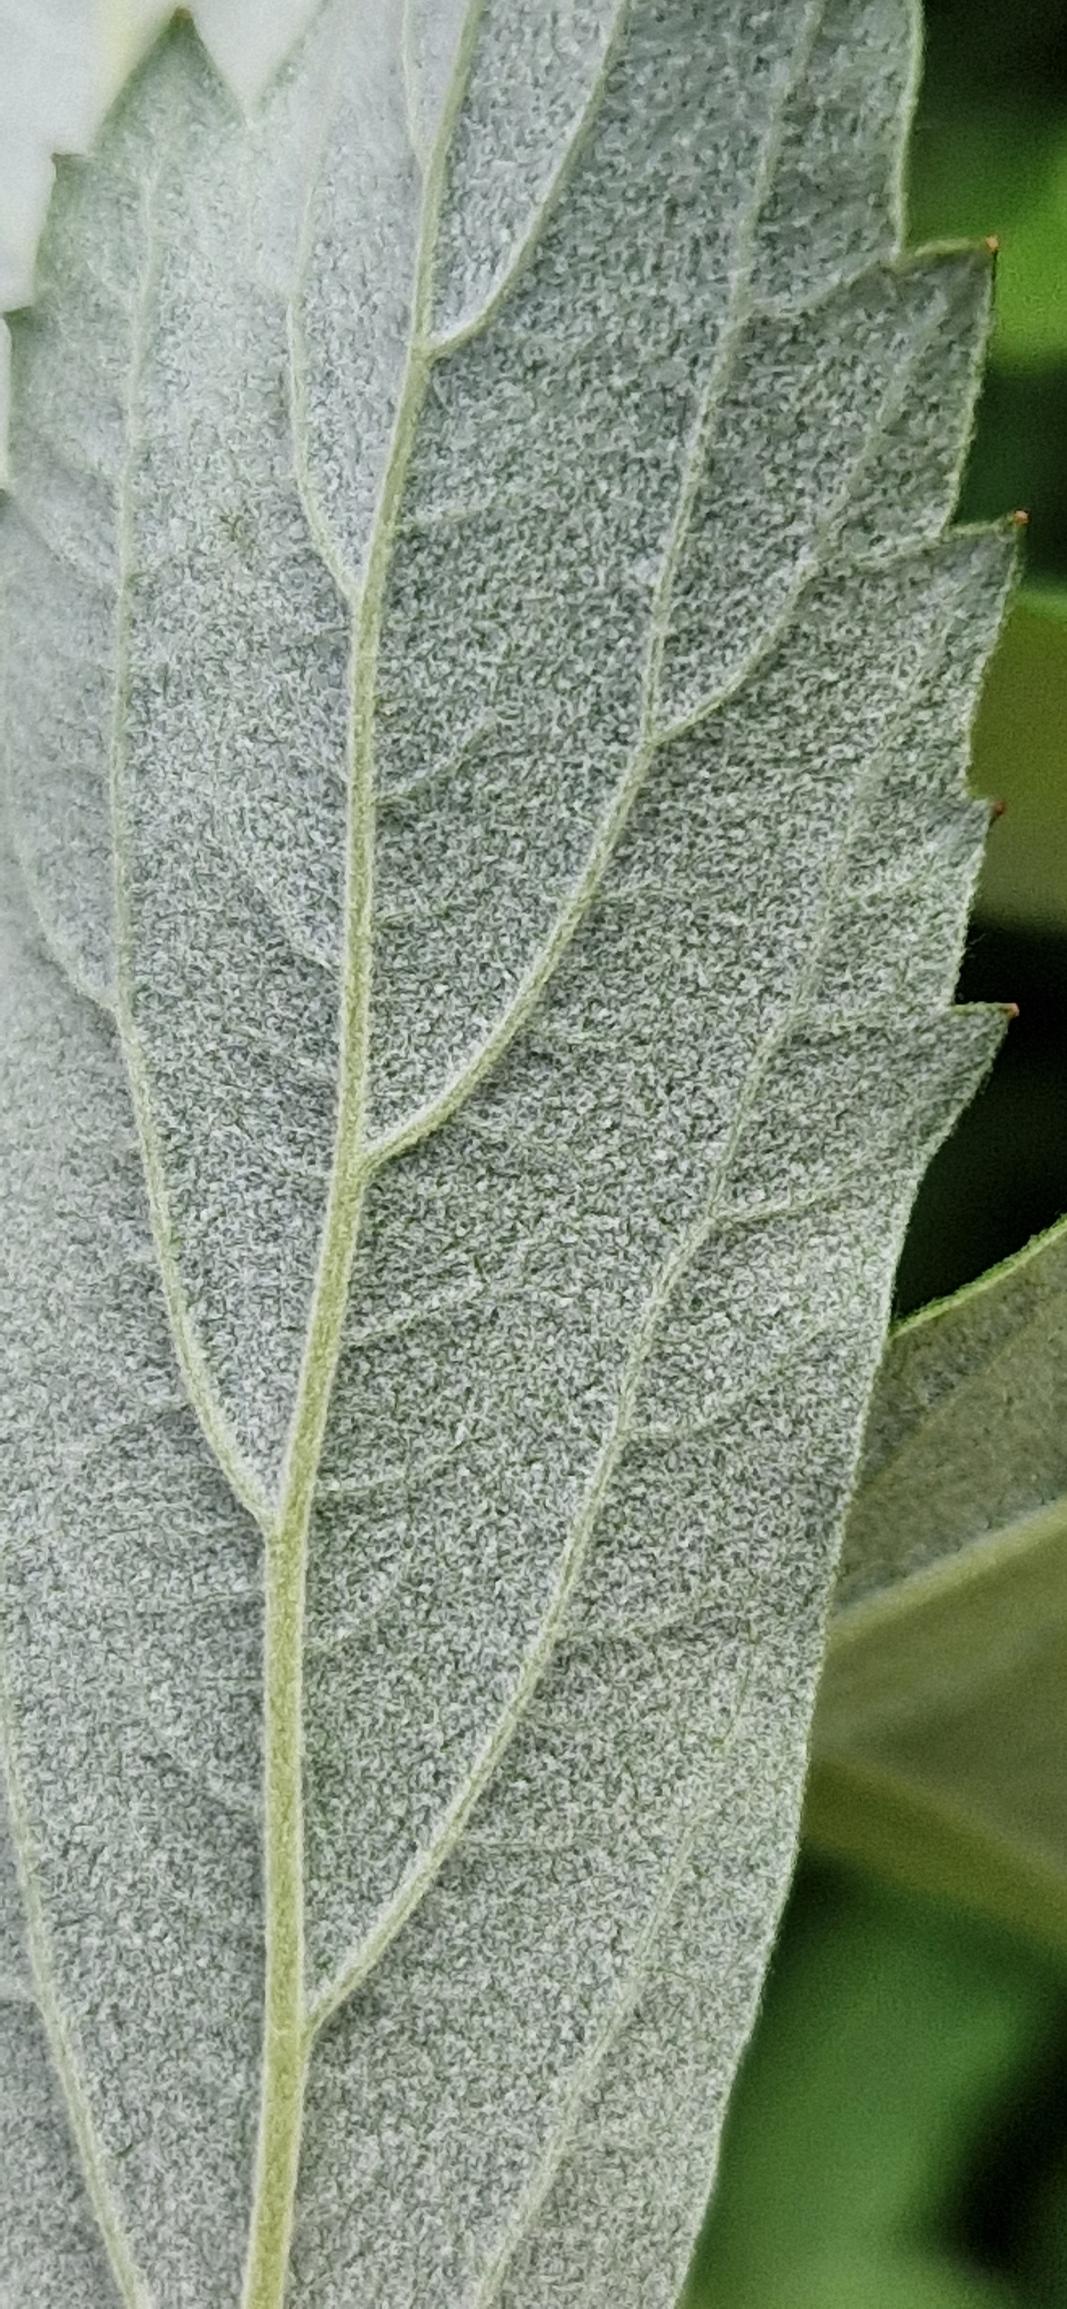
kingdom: Plantae
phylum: Tracheophyta
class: Magnoliopsida
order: Rosales
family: Rosaceae
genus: Spiraea
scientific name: Spiraea douglasii
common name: Rævehale-spiræa
